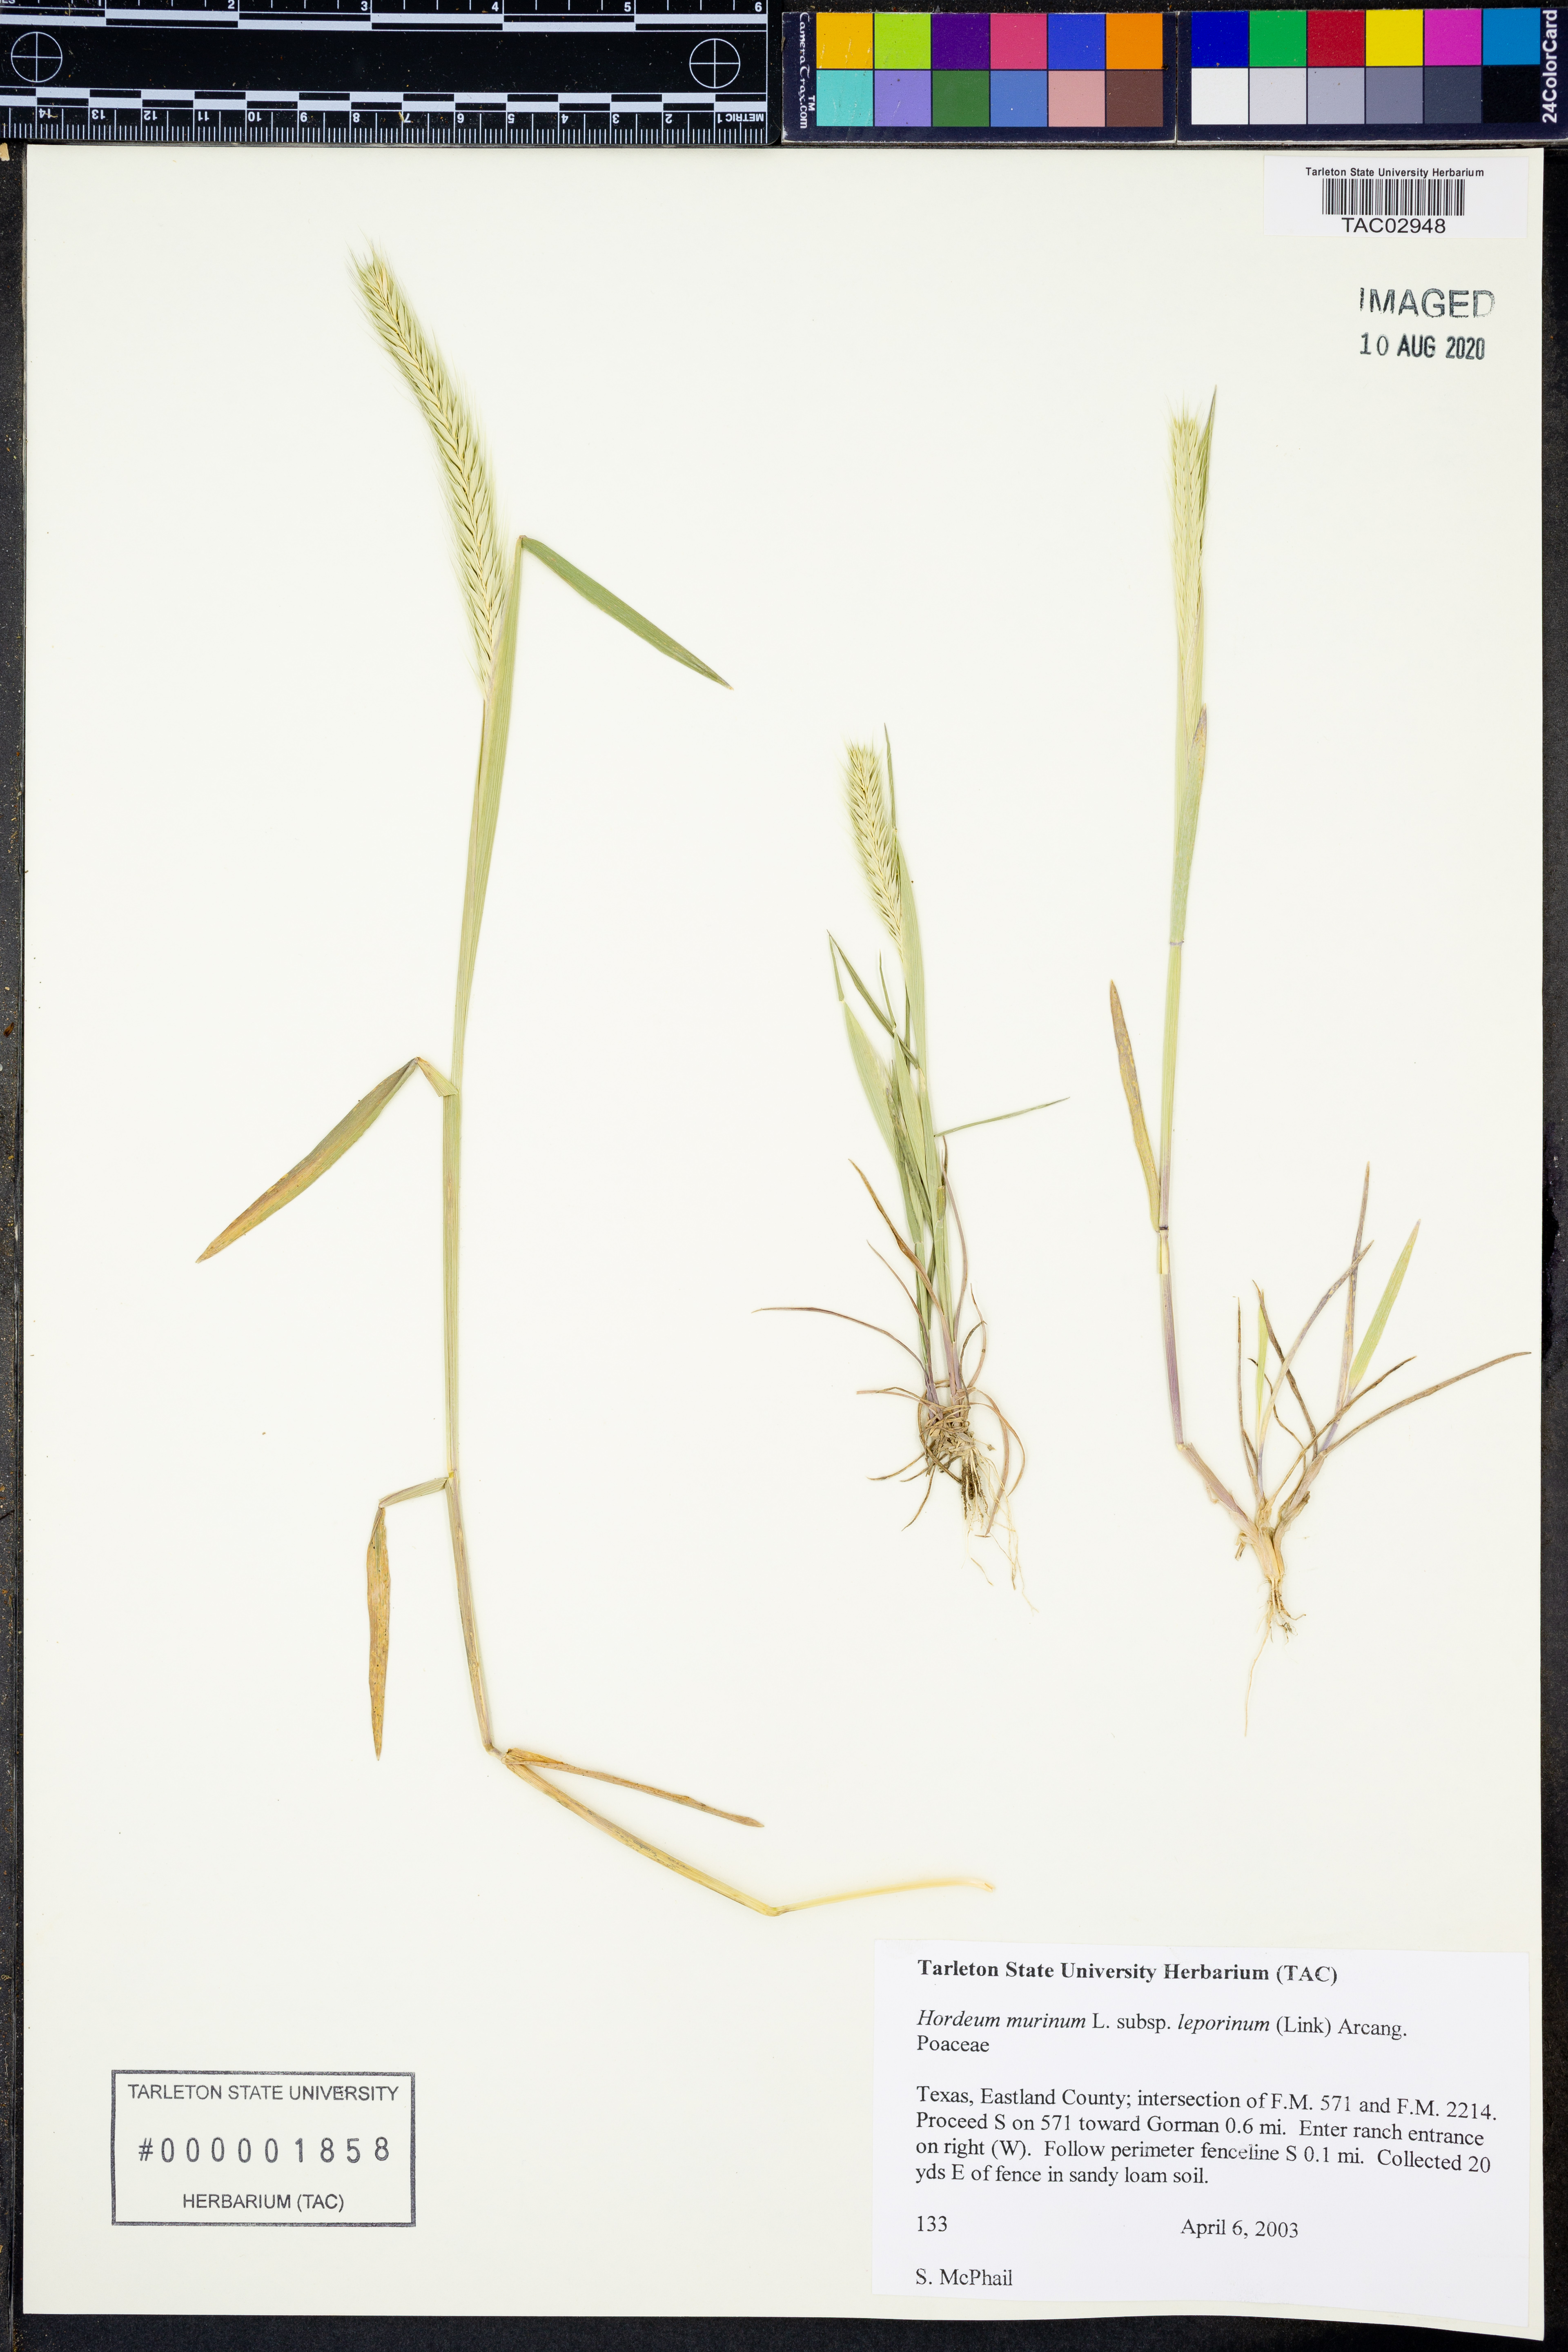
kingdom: Plantae
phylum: Tracheophyta
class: Liliopsida
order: Poales
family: Poaceae
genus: Hordeum
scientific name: Hordeum murinum
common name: Wall barley
